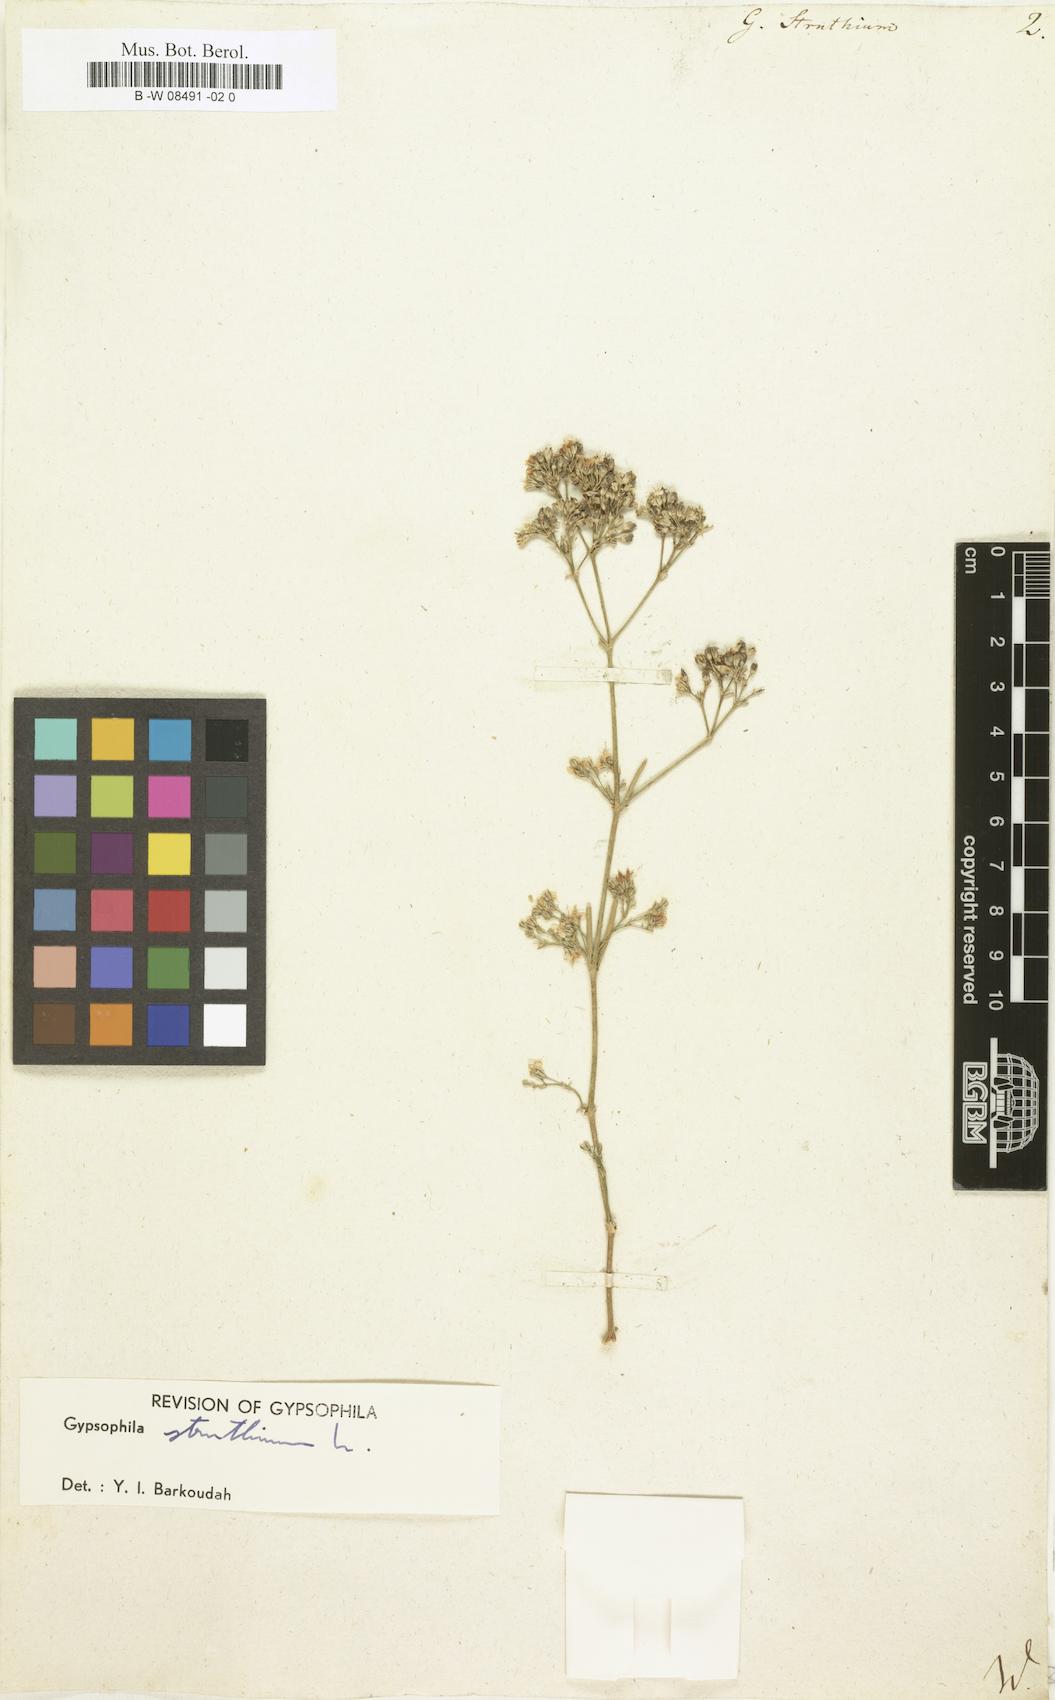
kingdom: Plantae
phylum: Tracheophyta
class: Magnoliopsida
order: Caryophyllales
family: Caryophyllaceae
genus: Gypsophila
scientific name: Gypsophila struthium
